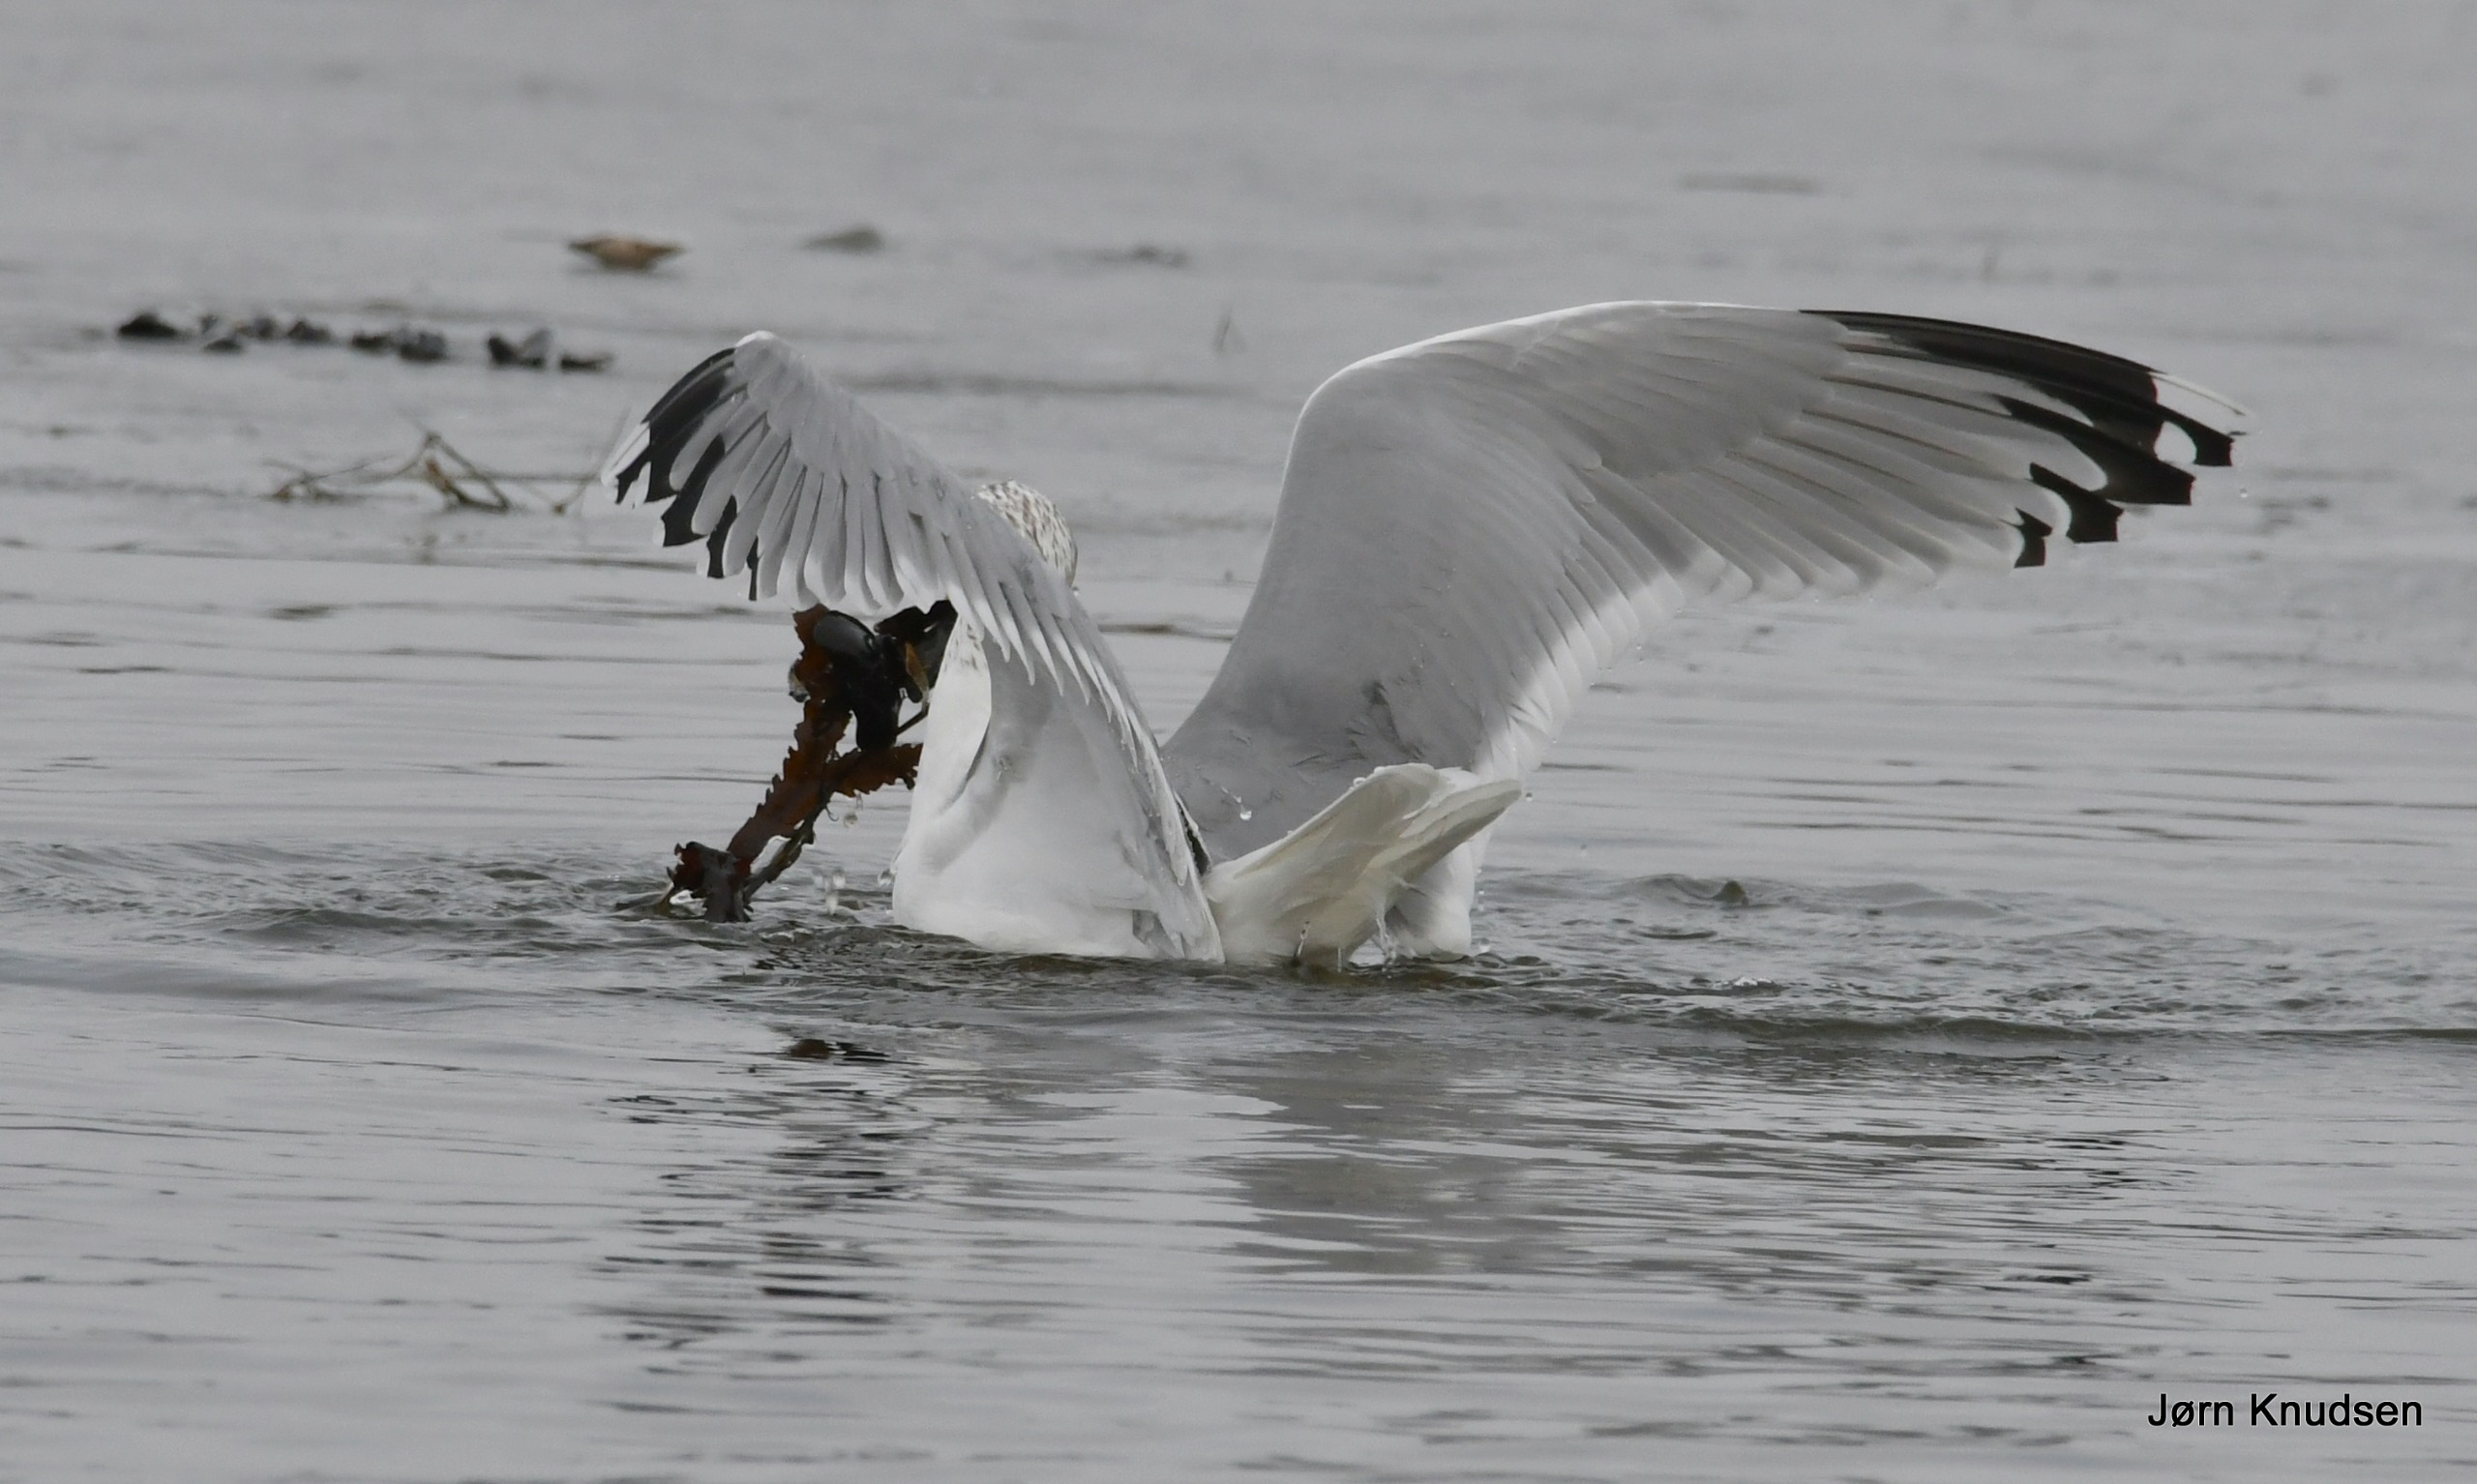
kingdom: Animalia
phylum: Chordata
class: Aves
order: Charadriiformes
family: Laridae
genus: Larus
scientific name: Larus argentatus
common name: Sølvmåge
